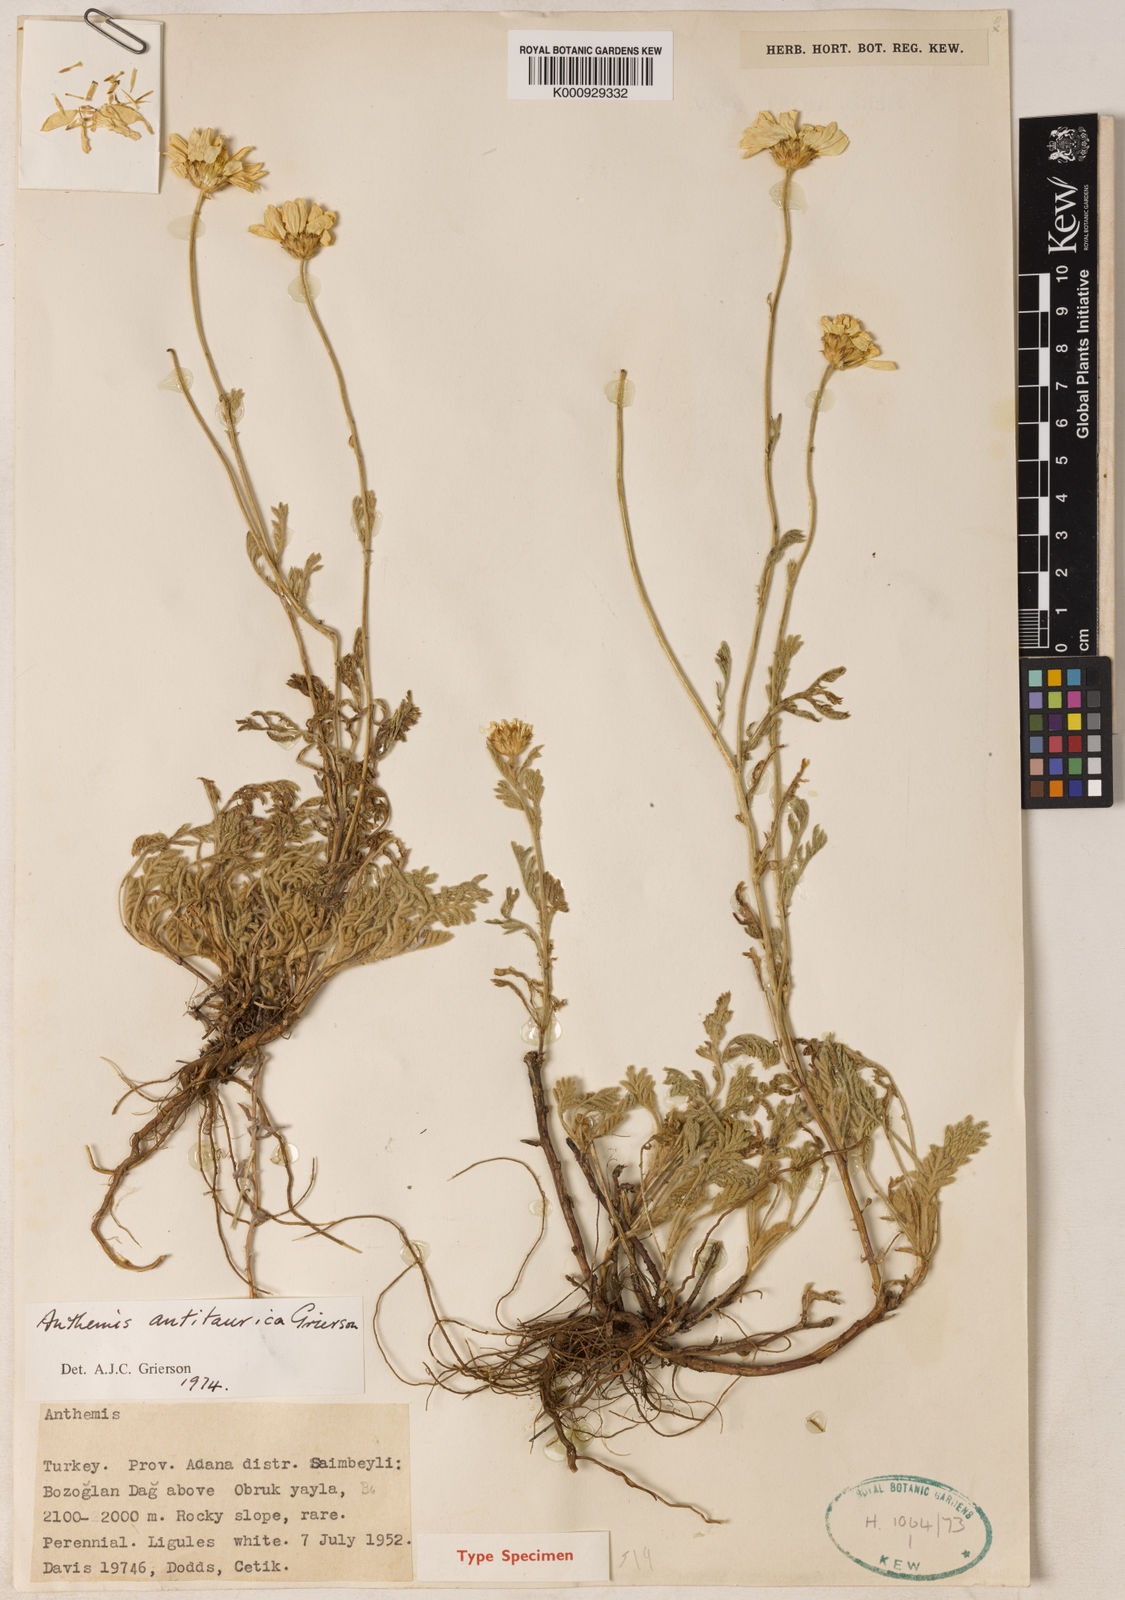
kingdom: Plantae
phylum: Tracheophyta
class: Magnoliopsida
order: Asterales
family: Asteraceae
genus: Cota
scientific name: Cota antitaurica
